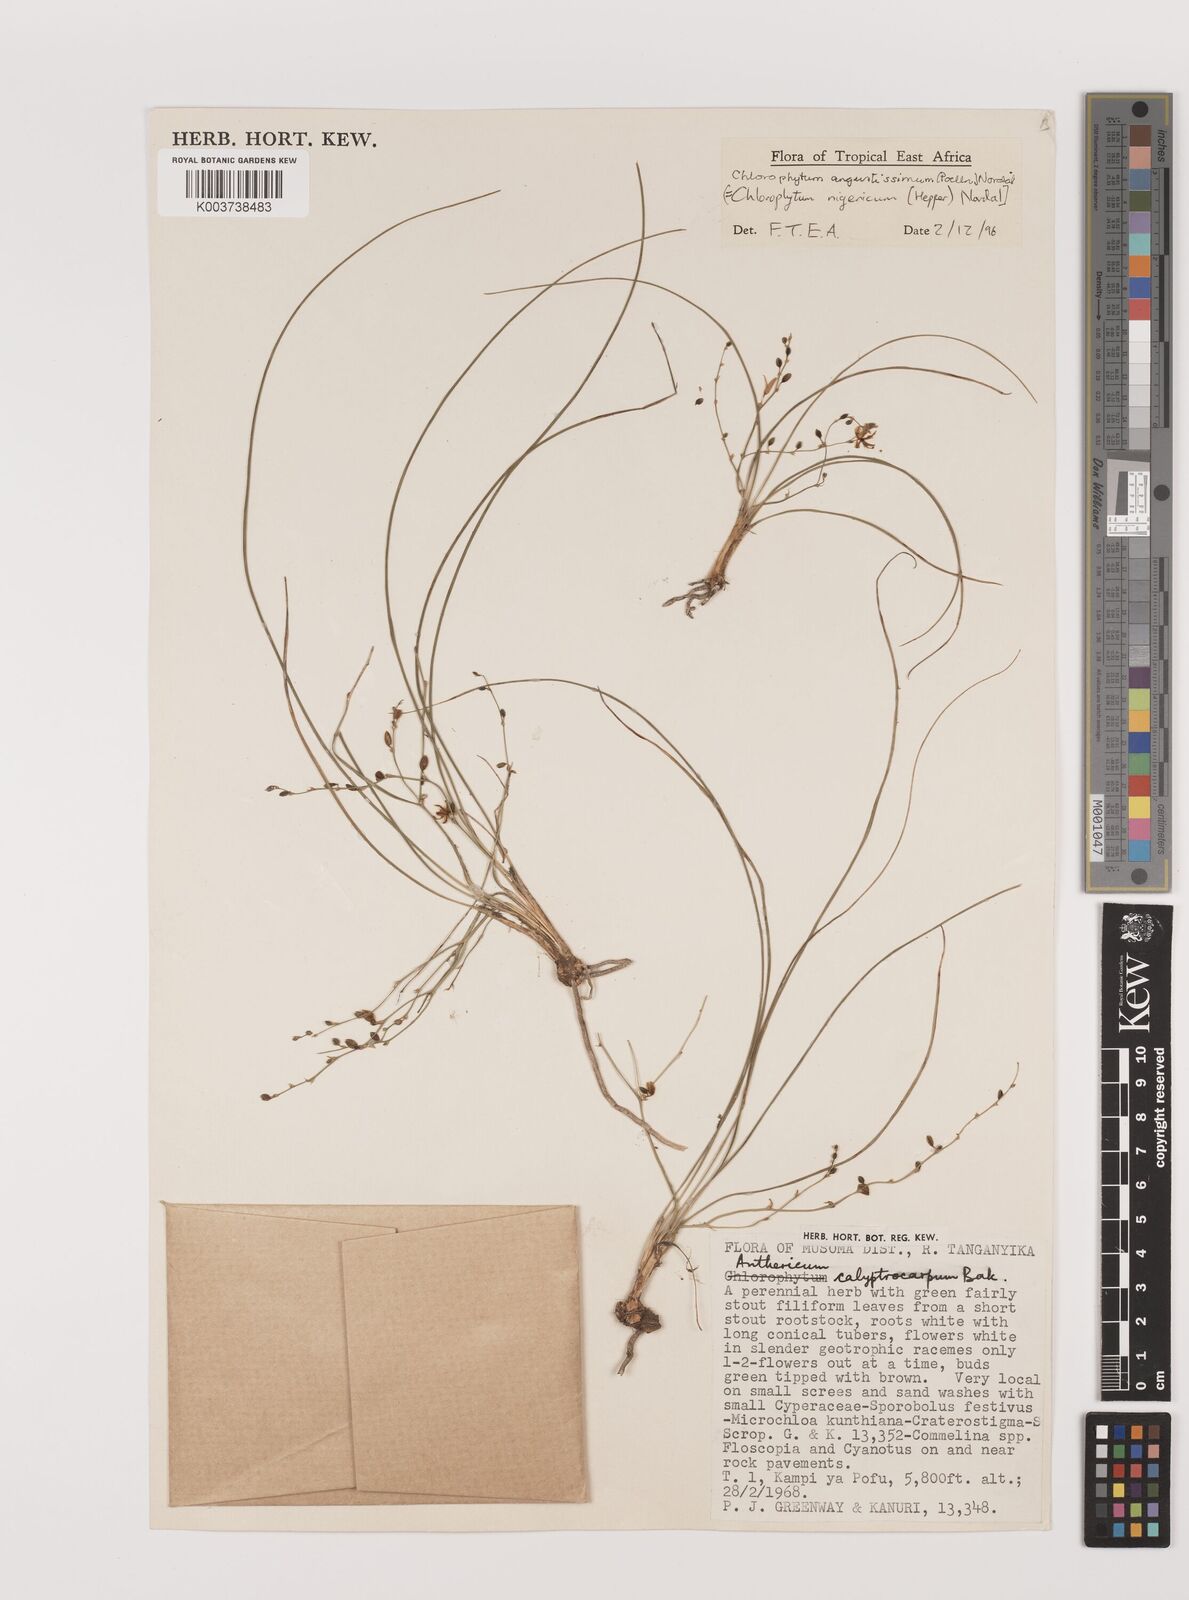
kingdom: Plantae
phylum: Tracheophyta
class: Liliopsida
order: Asparagales
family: Asparagaceae
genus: Chlorophytum
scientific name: Chlorophytum angustissimum
